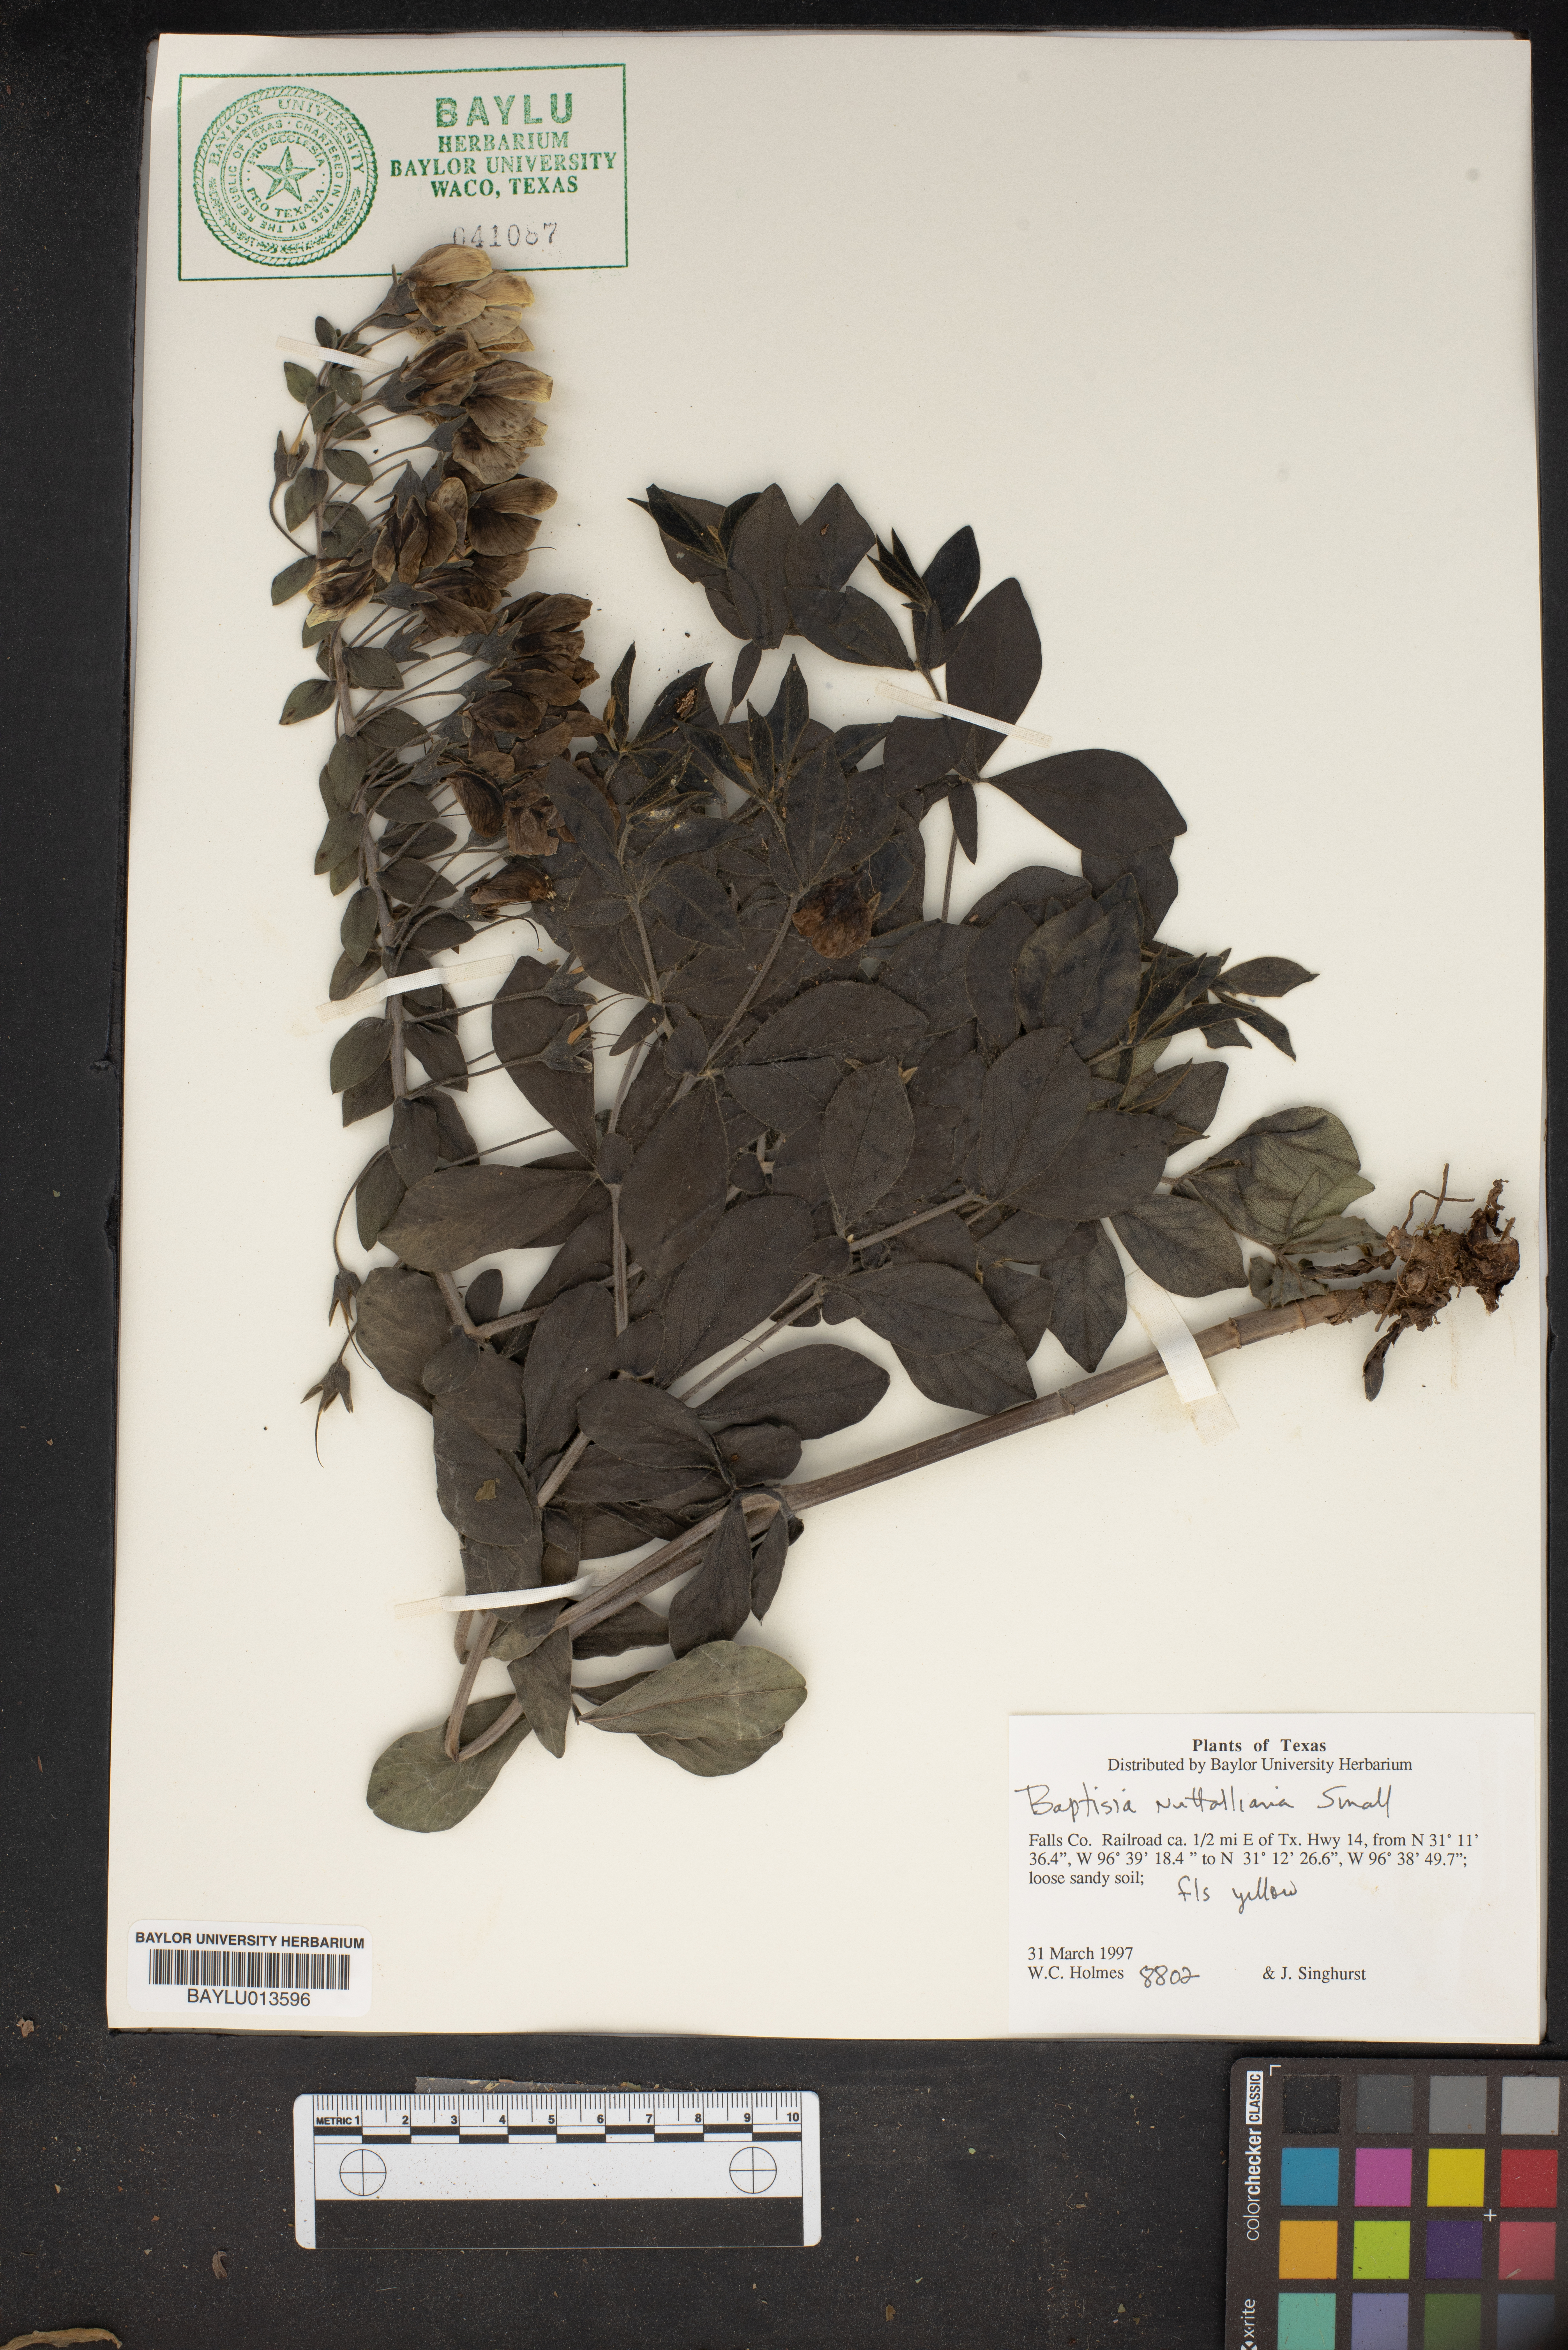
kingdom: Plantae
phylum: Tracheophyta
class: Magnoliopsida
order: Fabales
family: Fabaceae
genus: Baptisia
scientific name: Baptisia nuttalliana
